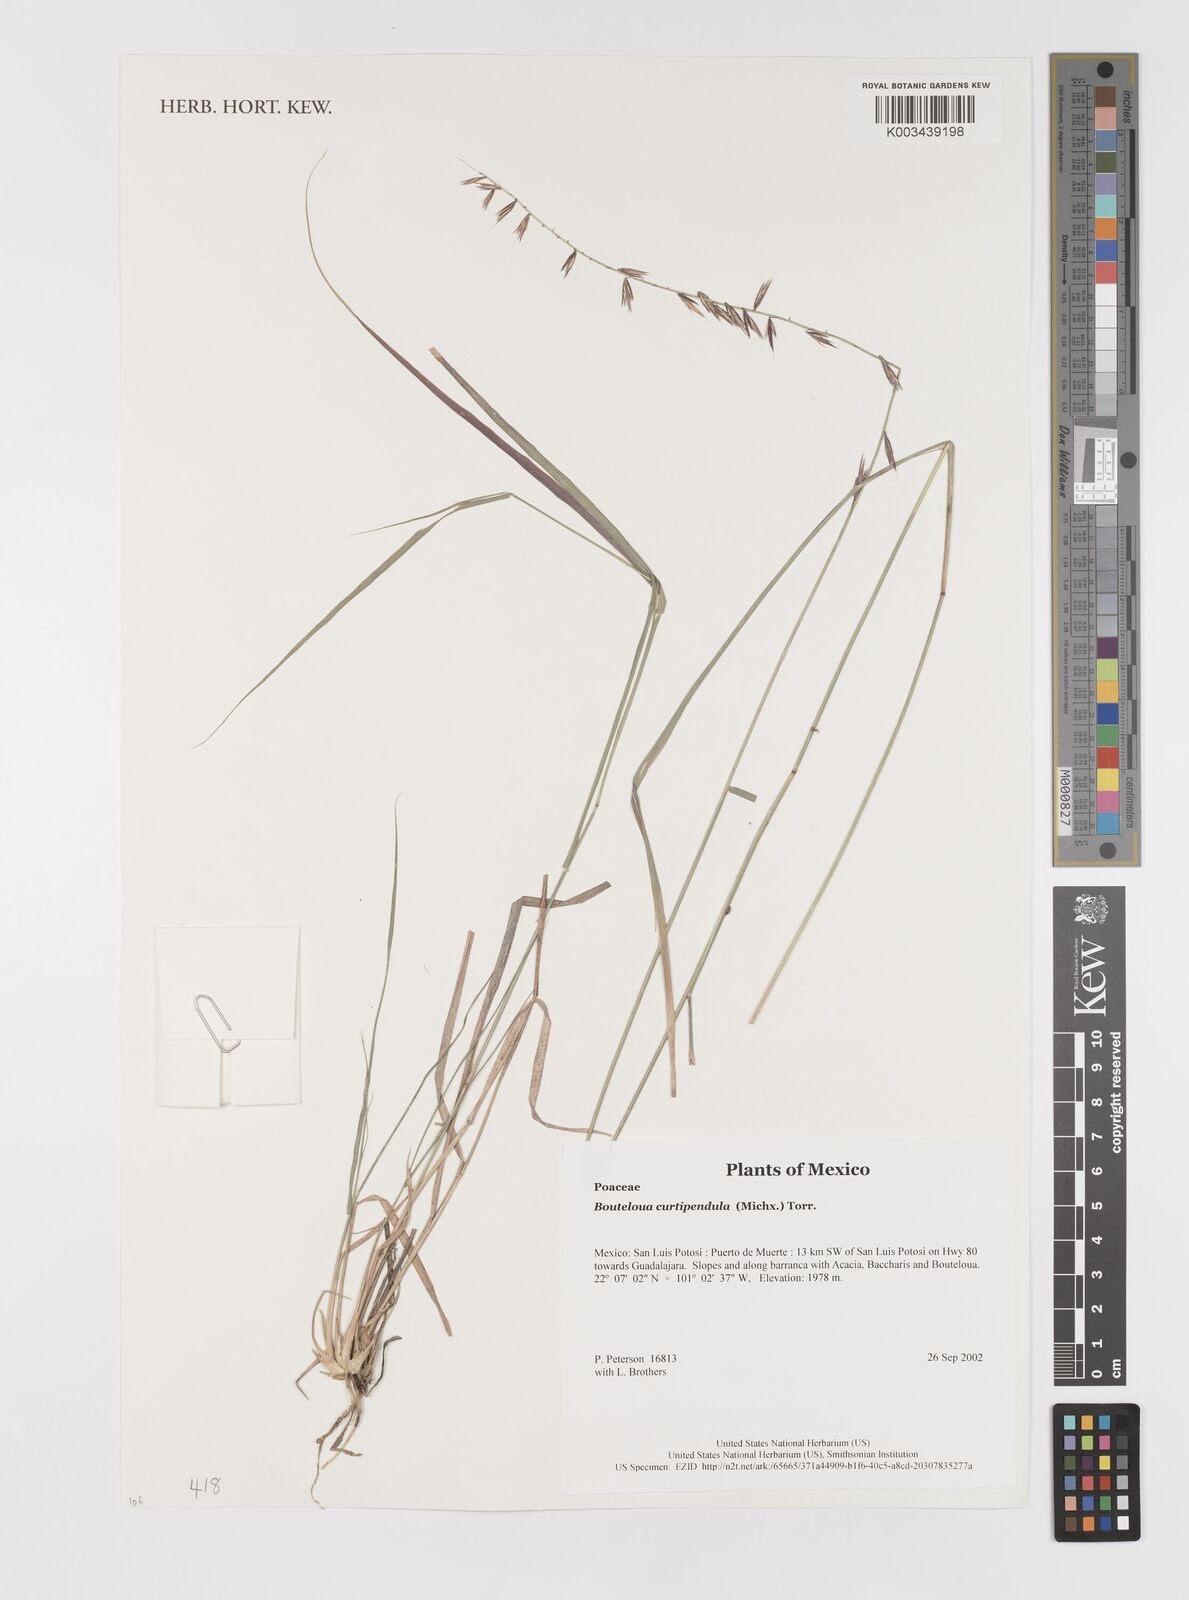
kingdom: Plantae
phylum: Tracheophyta
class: Liliopsida
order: Poales
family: Poaceae
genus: Bouteloua
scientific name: Bouteloua curtipendula
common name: Side-oats grama
